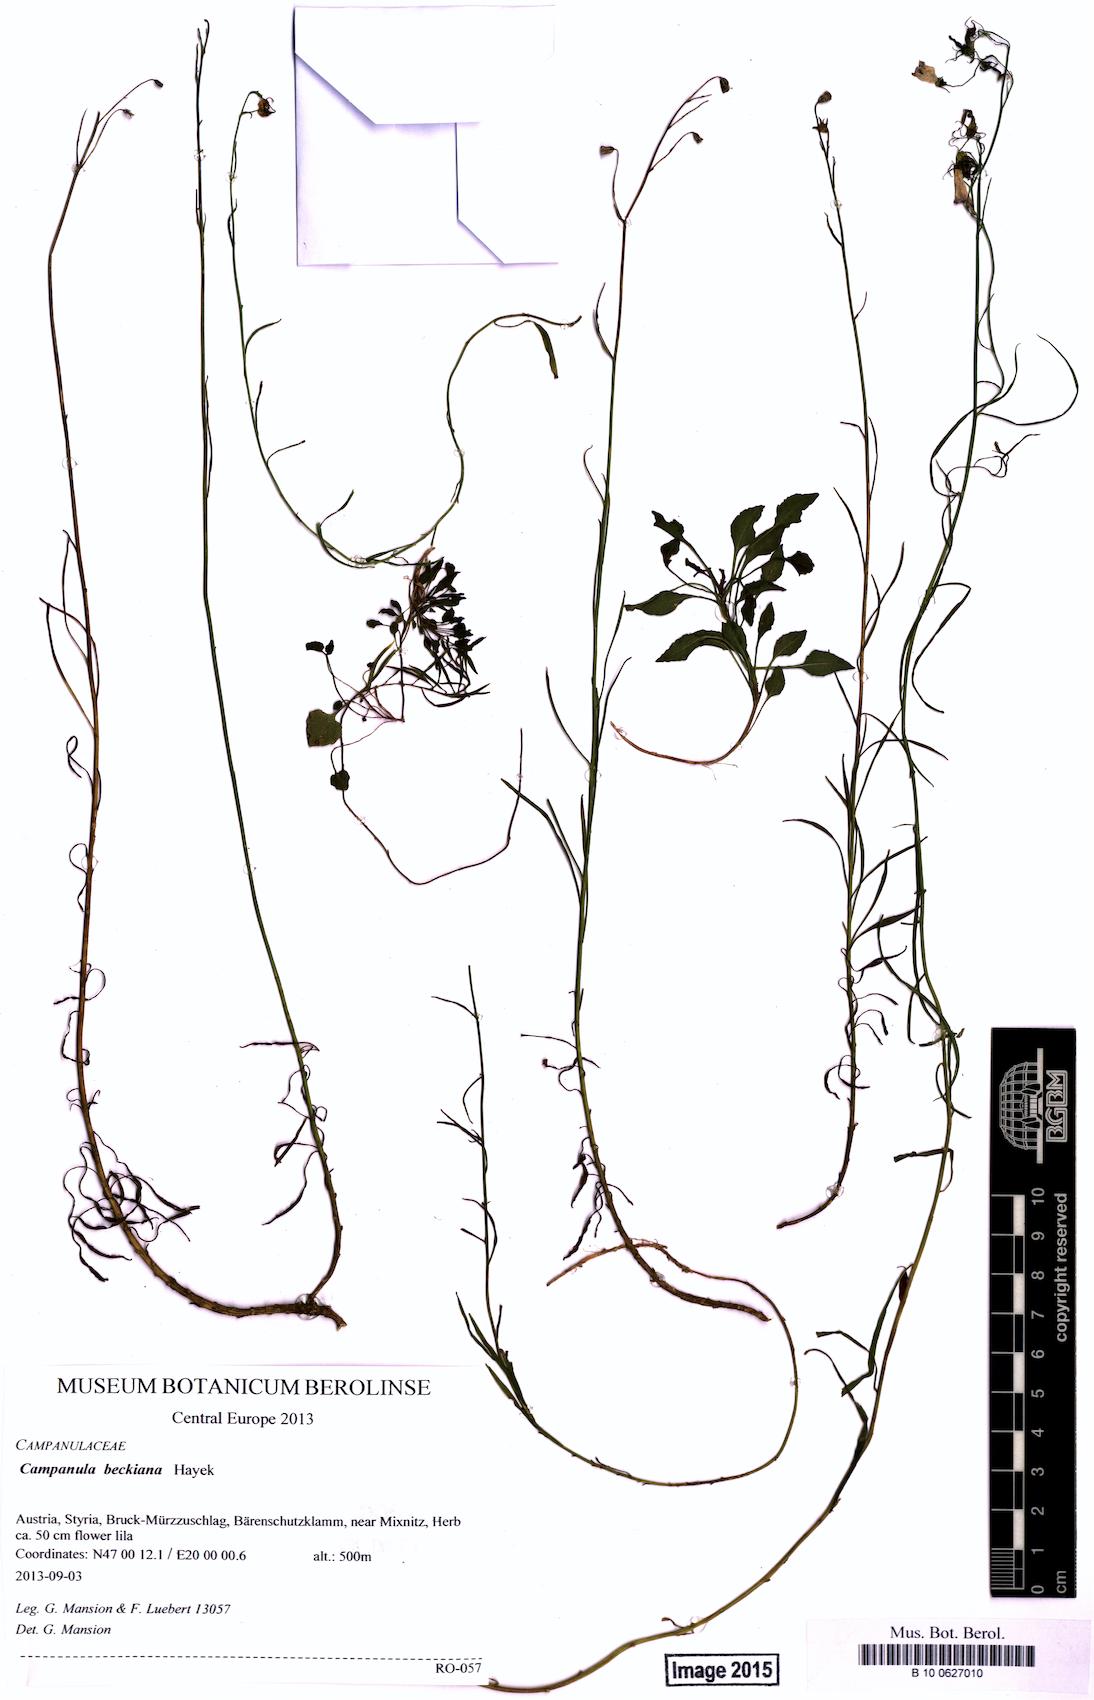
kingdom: Plantae
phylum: Tracheophyta
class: Magnoliopsida
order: Asterales
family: Campanulaceae
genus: Campanula
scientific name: Campanula baumgartenii
